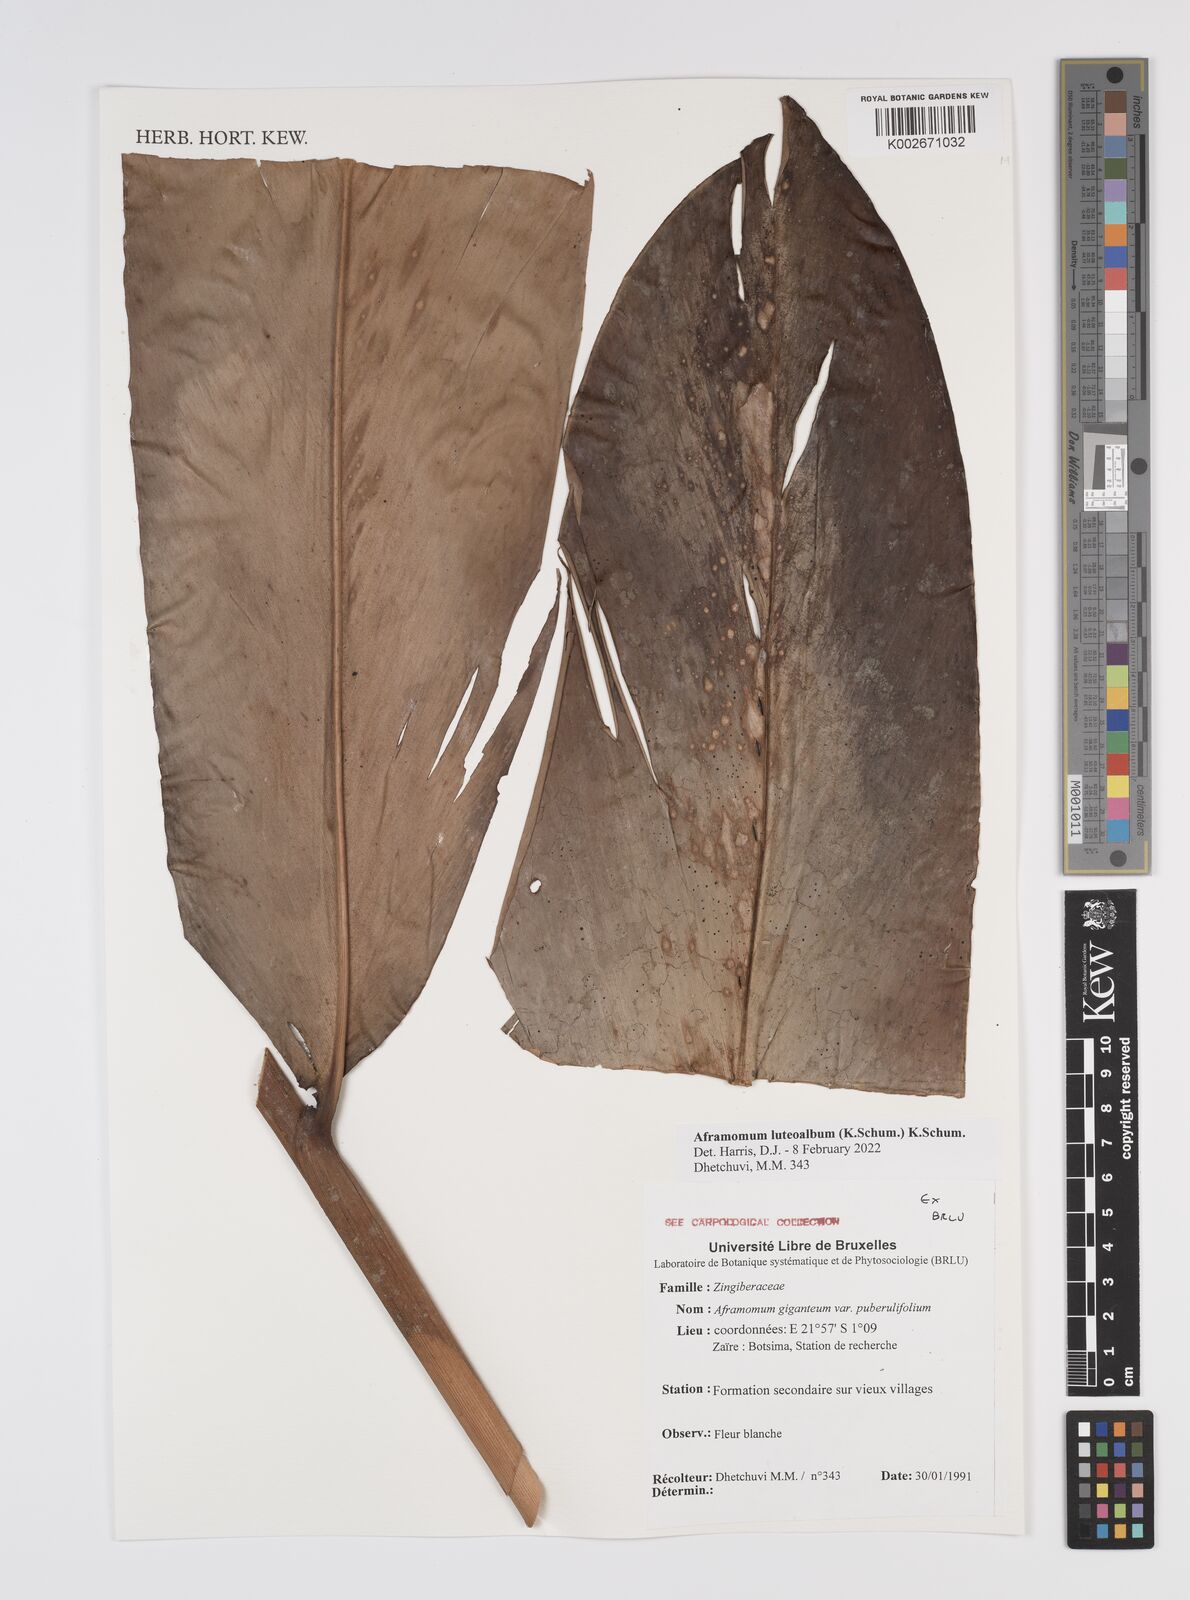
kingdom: Plantae
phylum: Tracheophyta
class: Liliopsida
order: Zingiberales
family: Zingiberaceae
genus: Aframomum
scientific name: Aframomum luteoalbum
